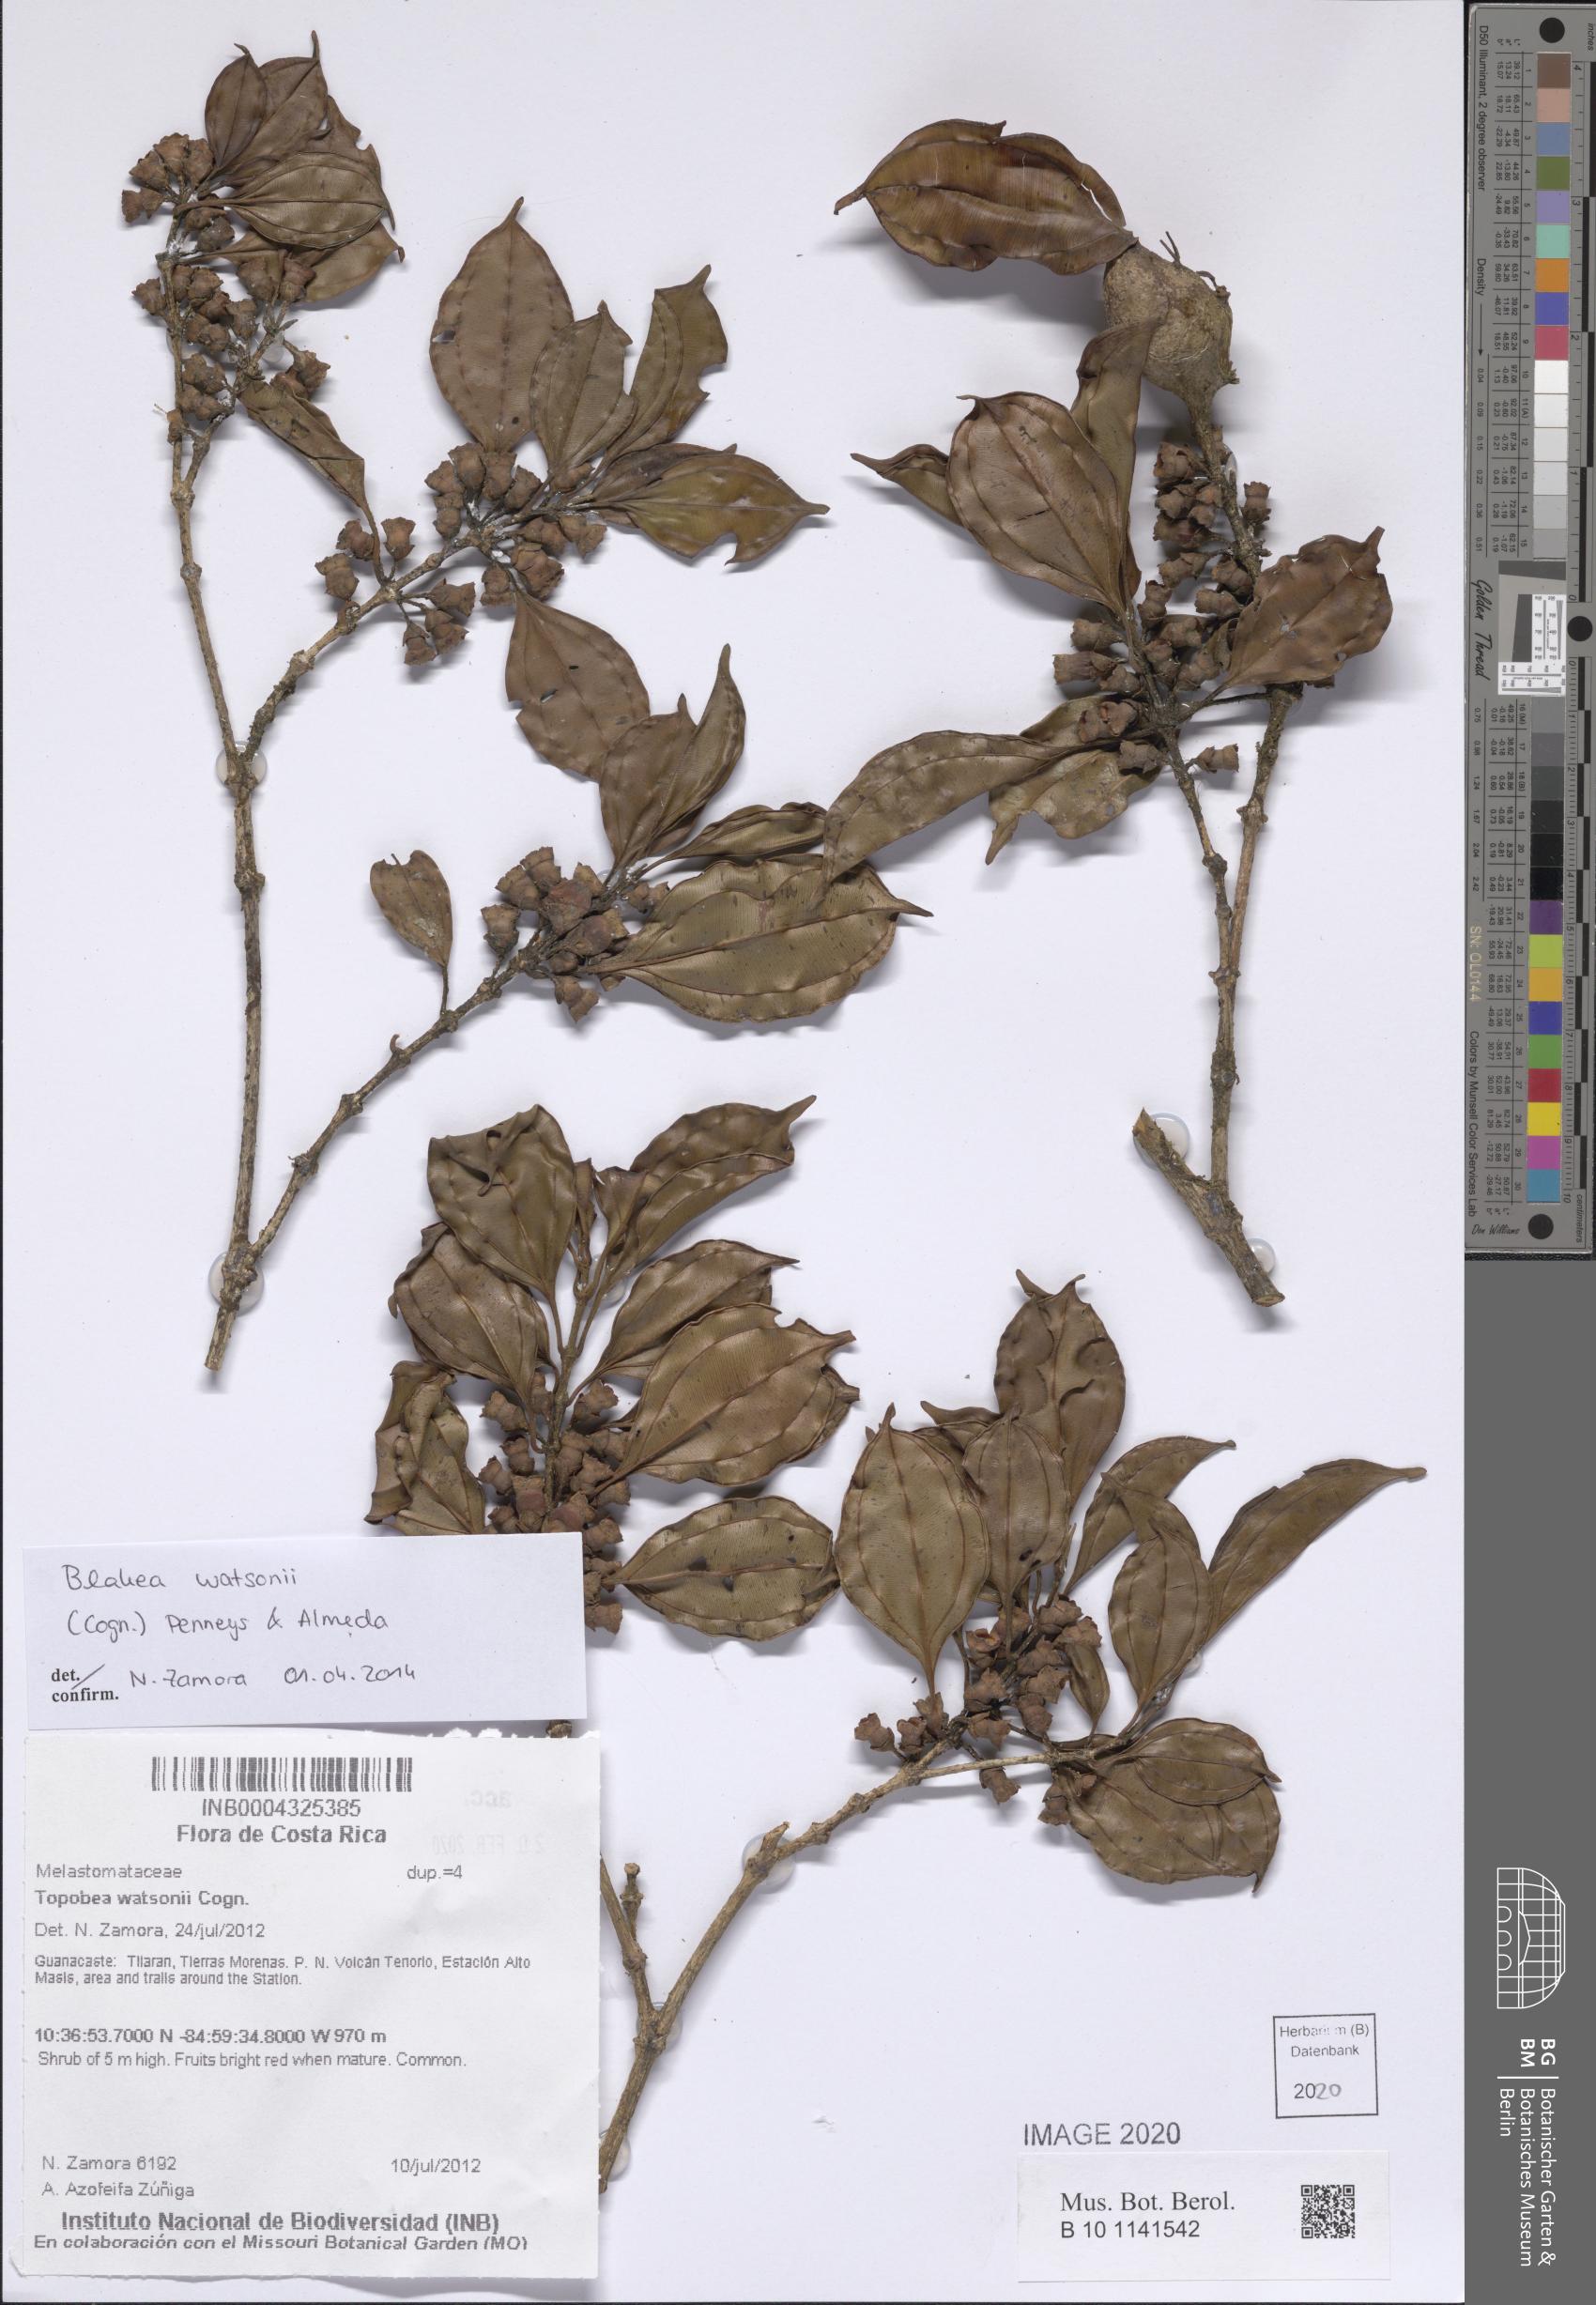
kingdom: Plantae
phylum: Tracheophyta
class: Magnoliopsida
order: Myrtales
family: Melastomataceae
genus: Blakea
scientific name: Blakea watsonii
